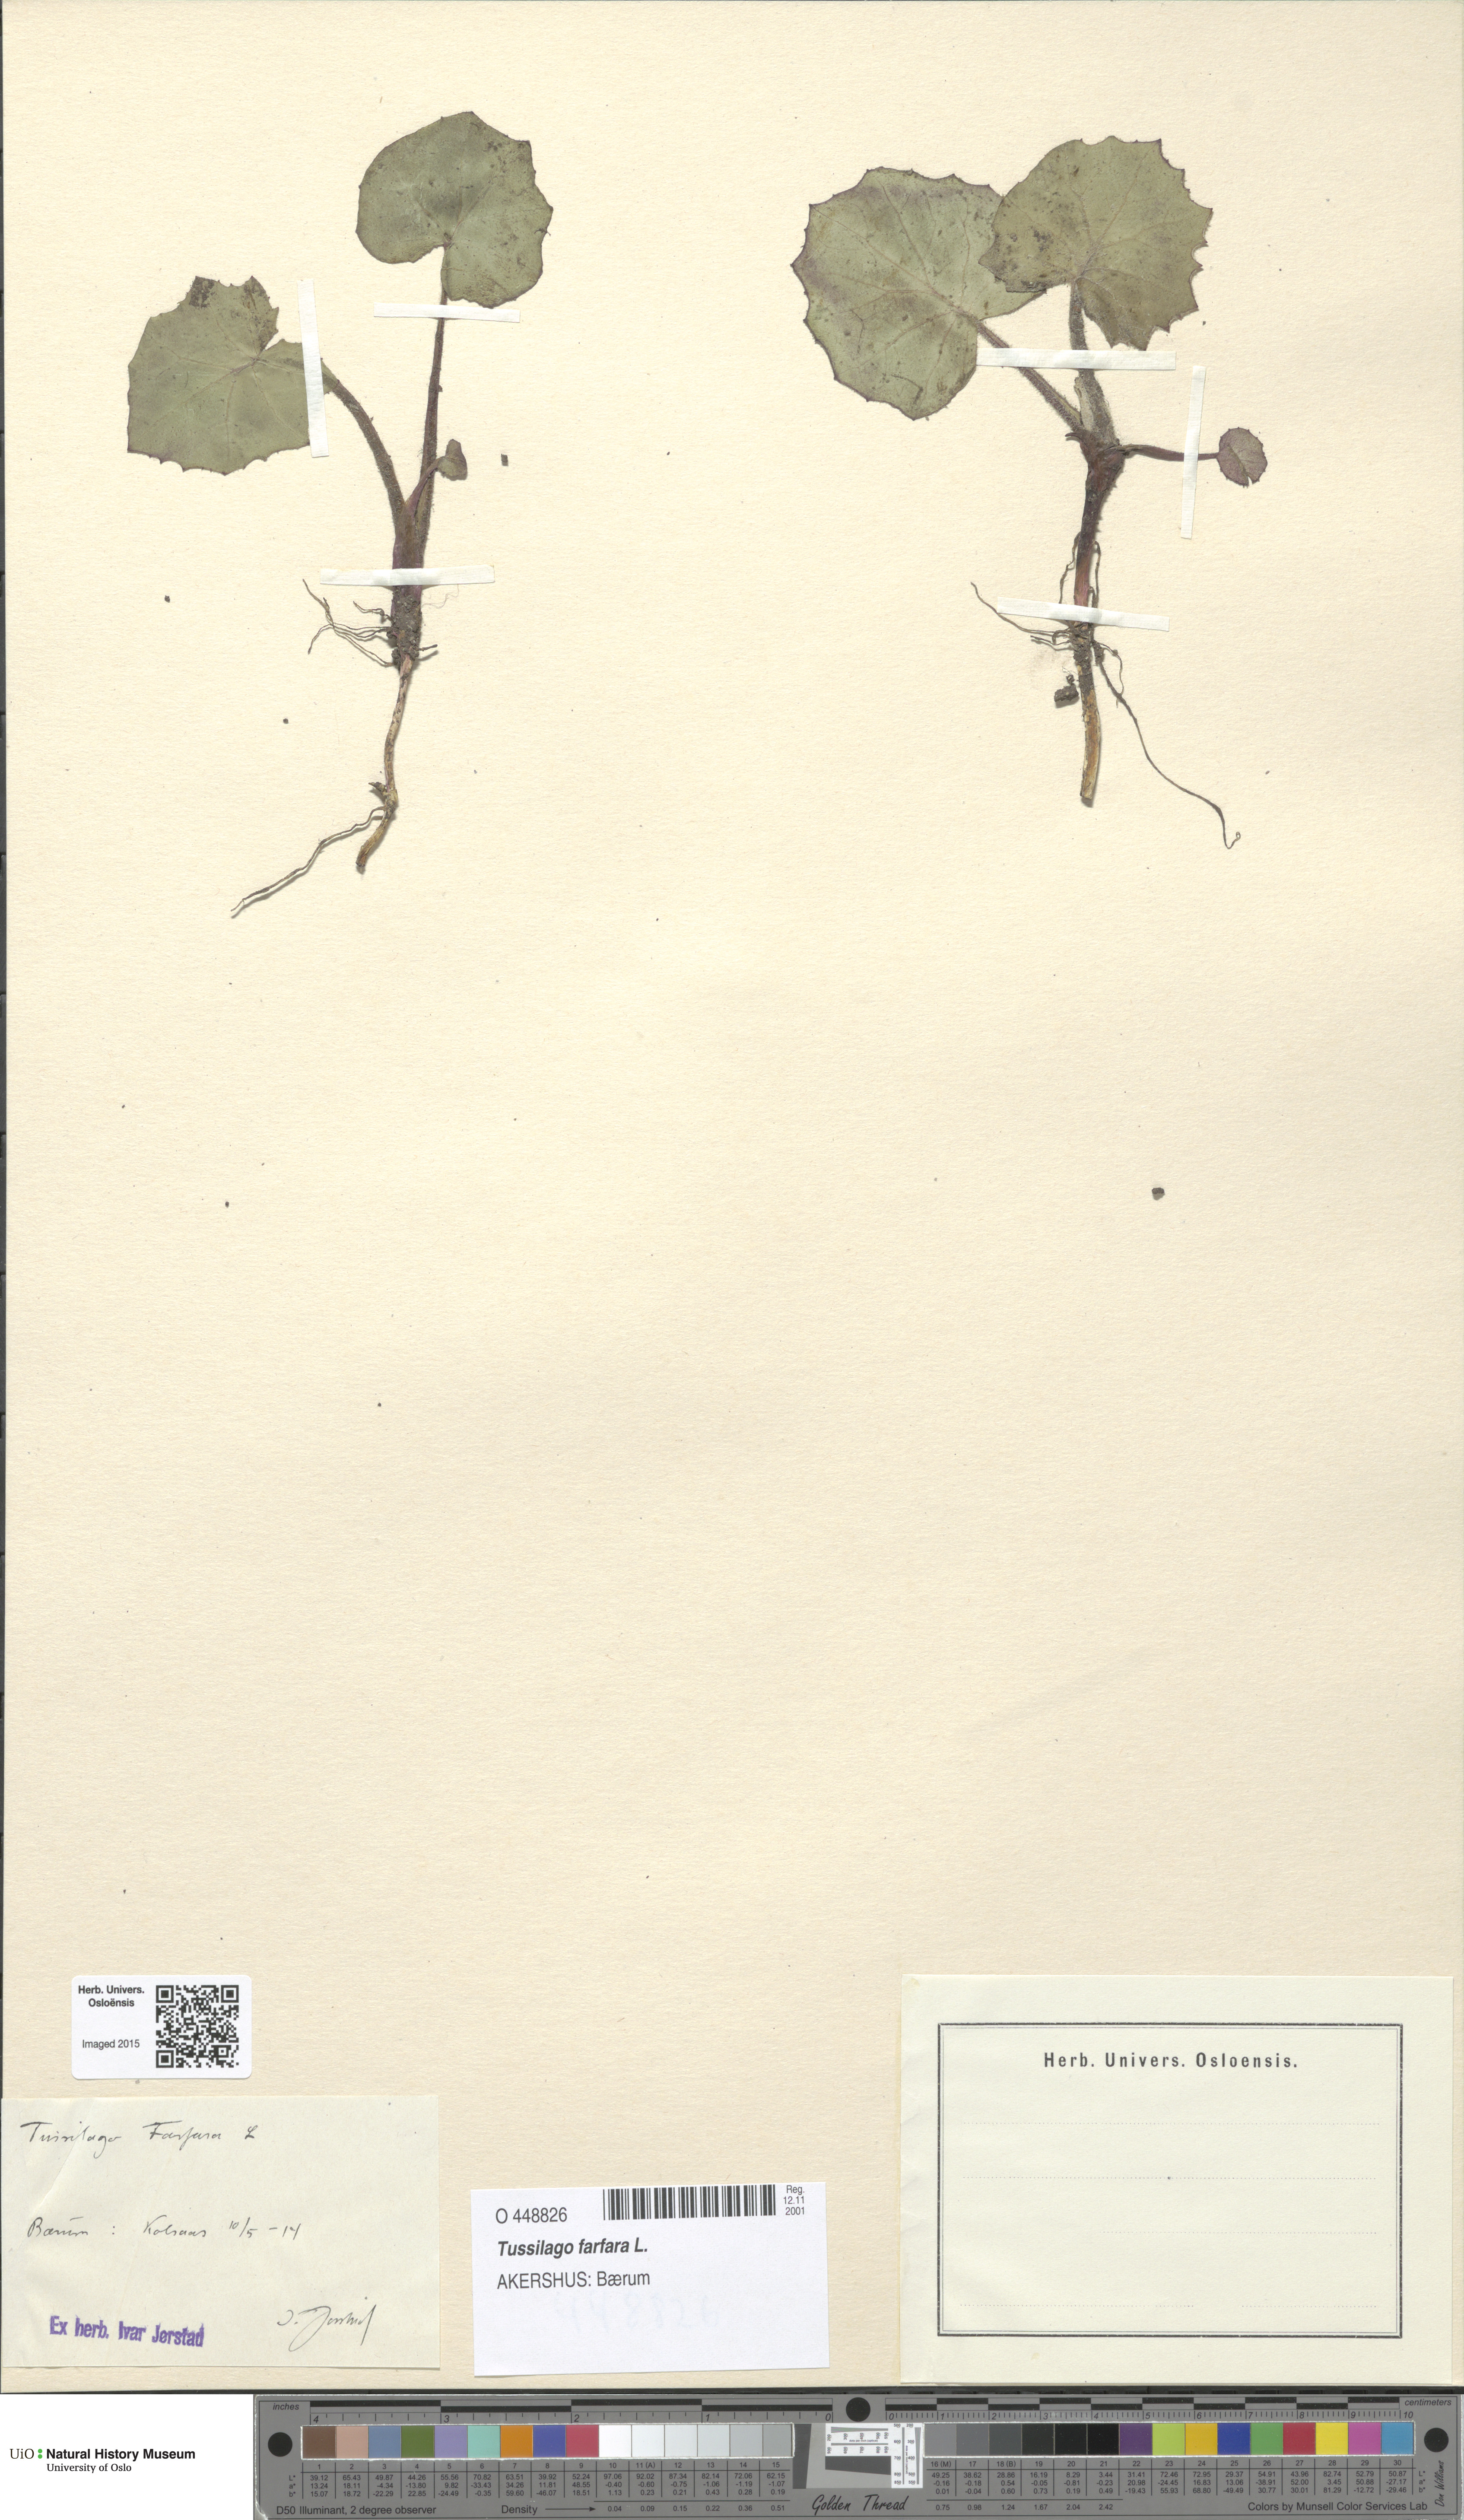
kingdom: Plantae
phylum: Tracheophyta
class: Magnoliopsida
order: Asterales
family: Asteraceae
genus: Tussilago
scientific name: Tussilago farfara
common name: Coltsfoot
